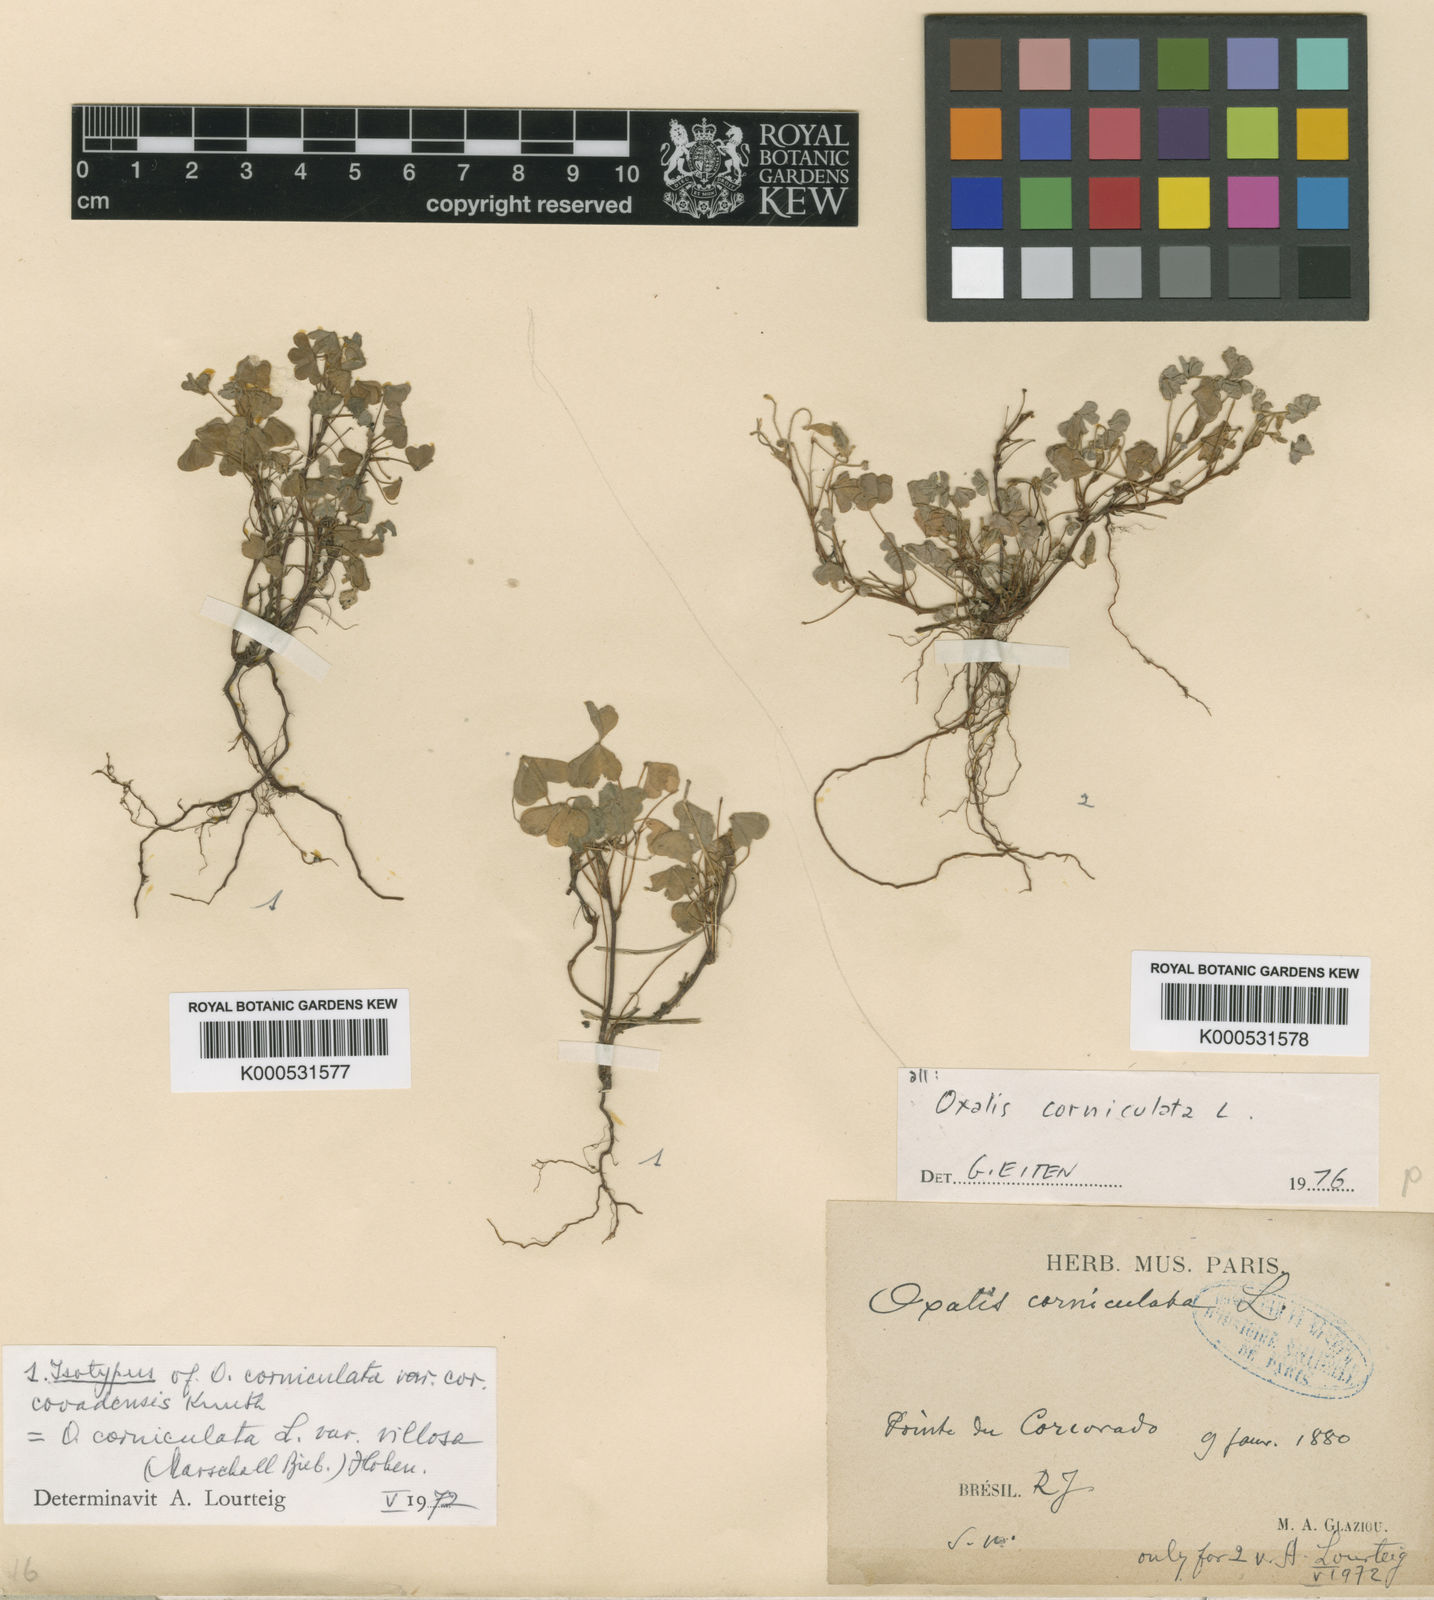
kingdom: Plantae
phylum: Tracheophyta
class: Magnoliopsida
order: Oxalidales
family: Oxalidaceae
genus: Oxalis
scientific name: Oxalis corniculata
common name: Procumbent yellow-sorrel
